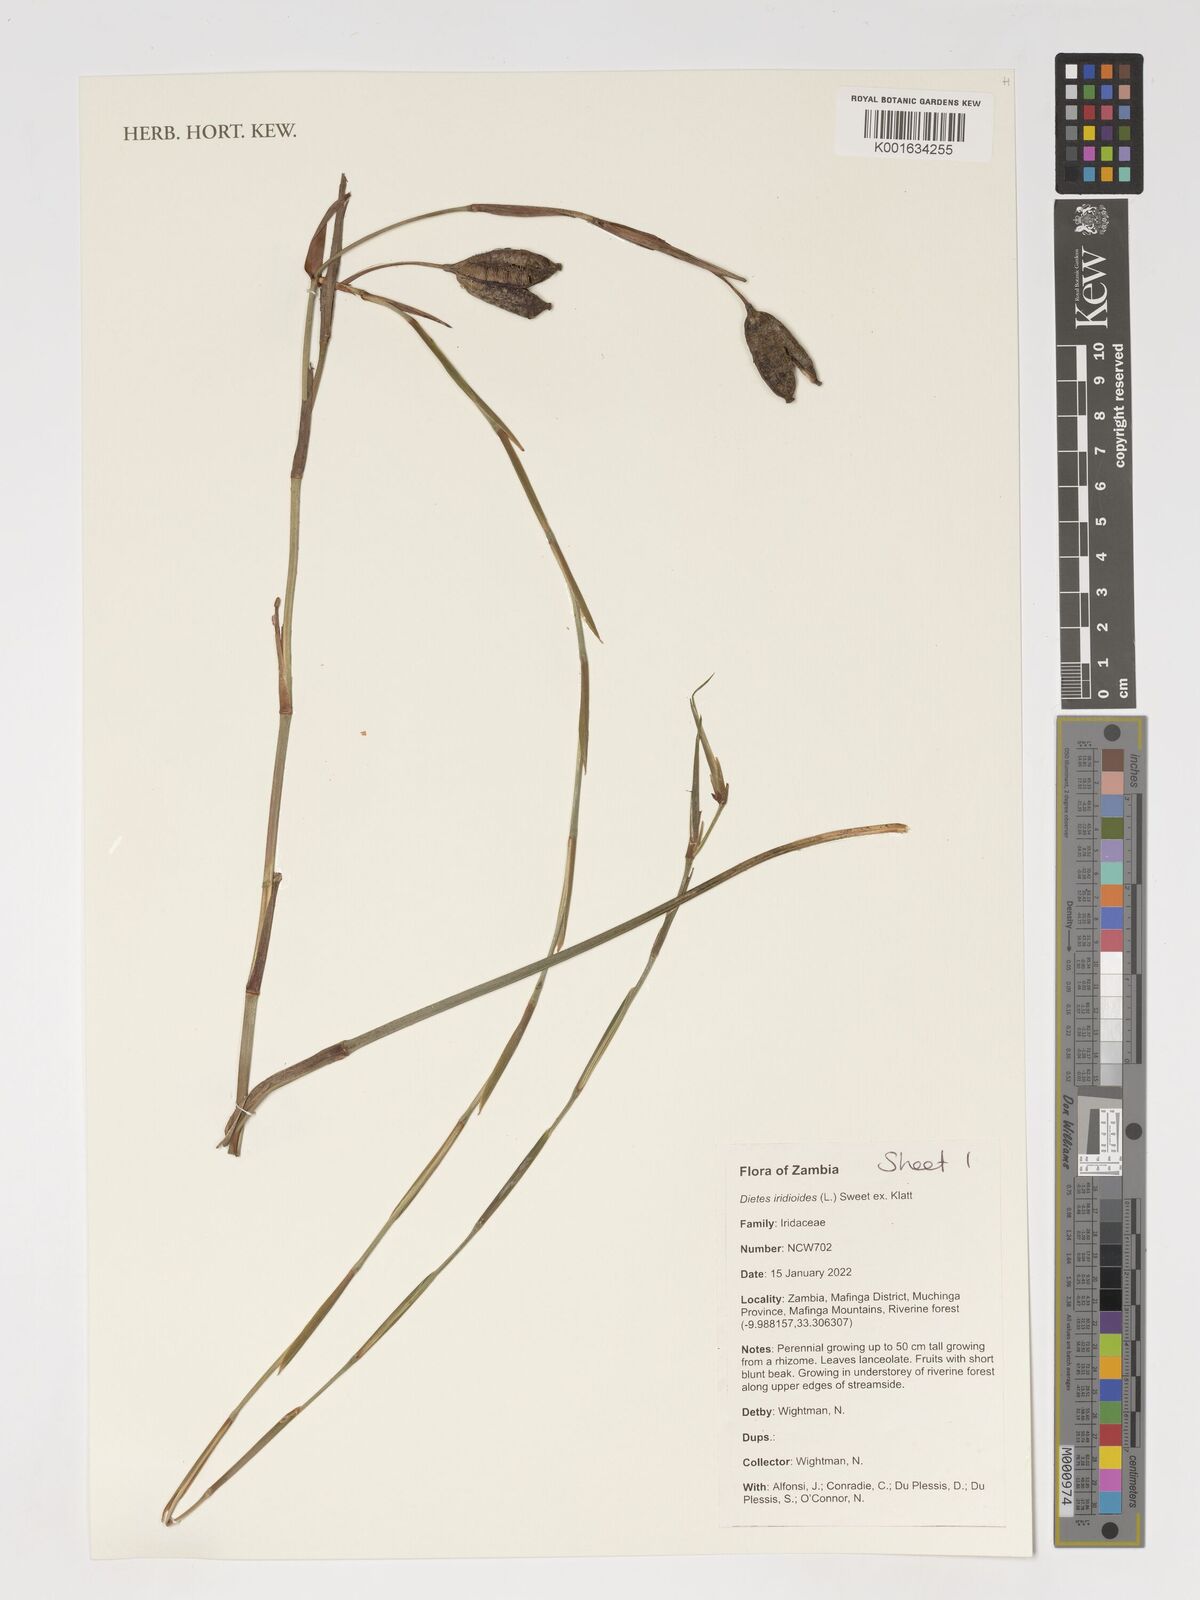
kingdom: Plantae
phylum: Tracheophyta
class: Liliopsida
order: Asparagales
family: Iridaceae
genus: Dietes
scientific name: Dietes iridioides
